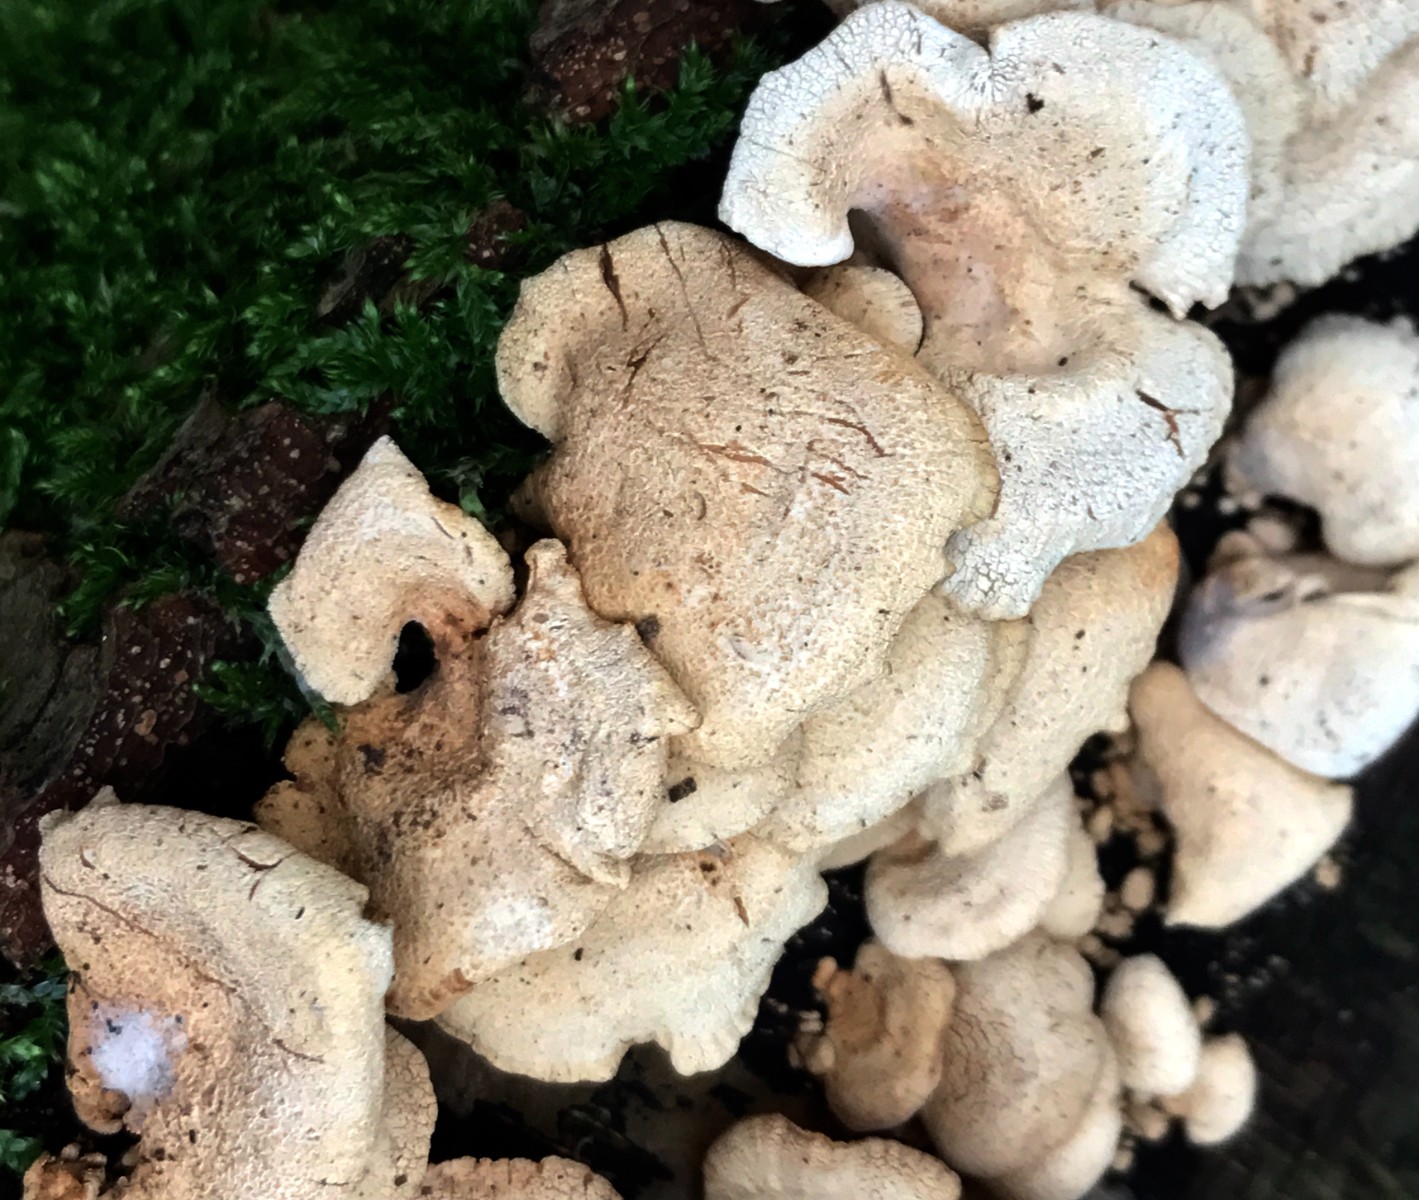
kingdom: Fungi
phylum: Basidiomycota
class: Agaricomycetes
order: Agaricales
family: Mycenaceae
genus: Panellus
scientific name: Panellus stipticus
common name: kliddet epaulethat
